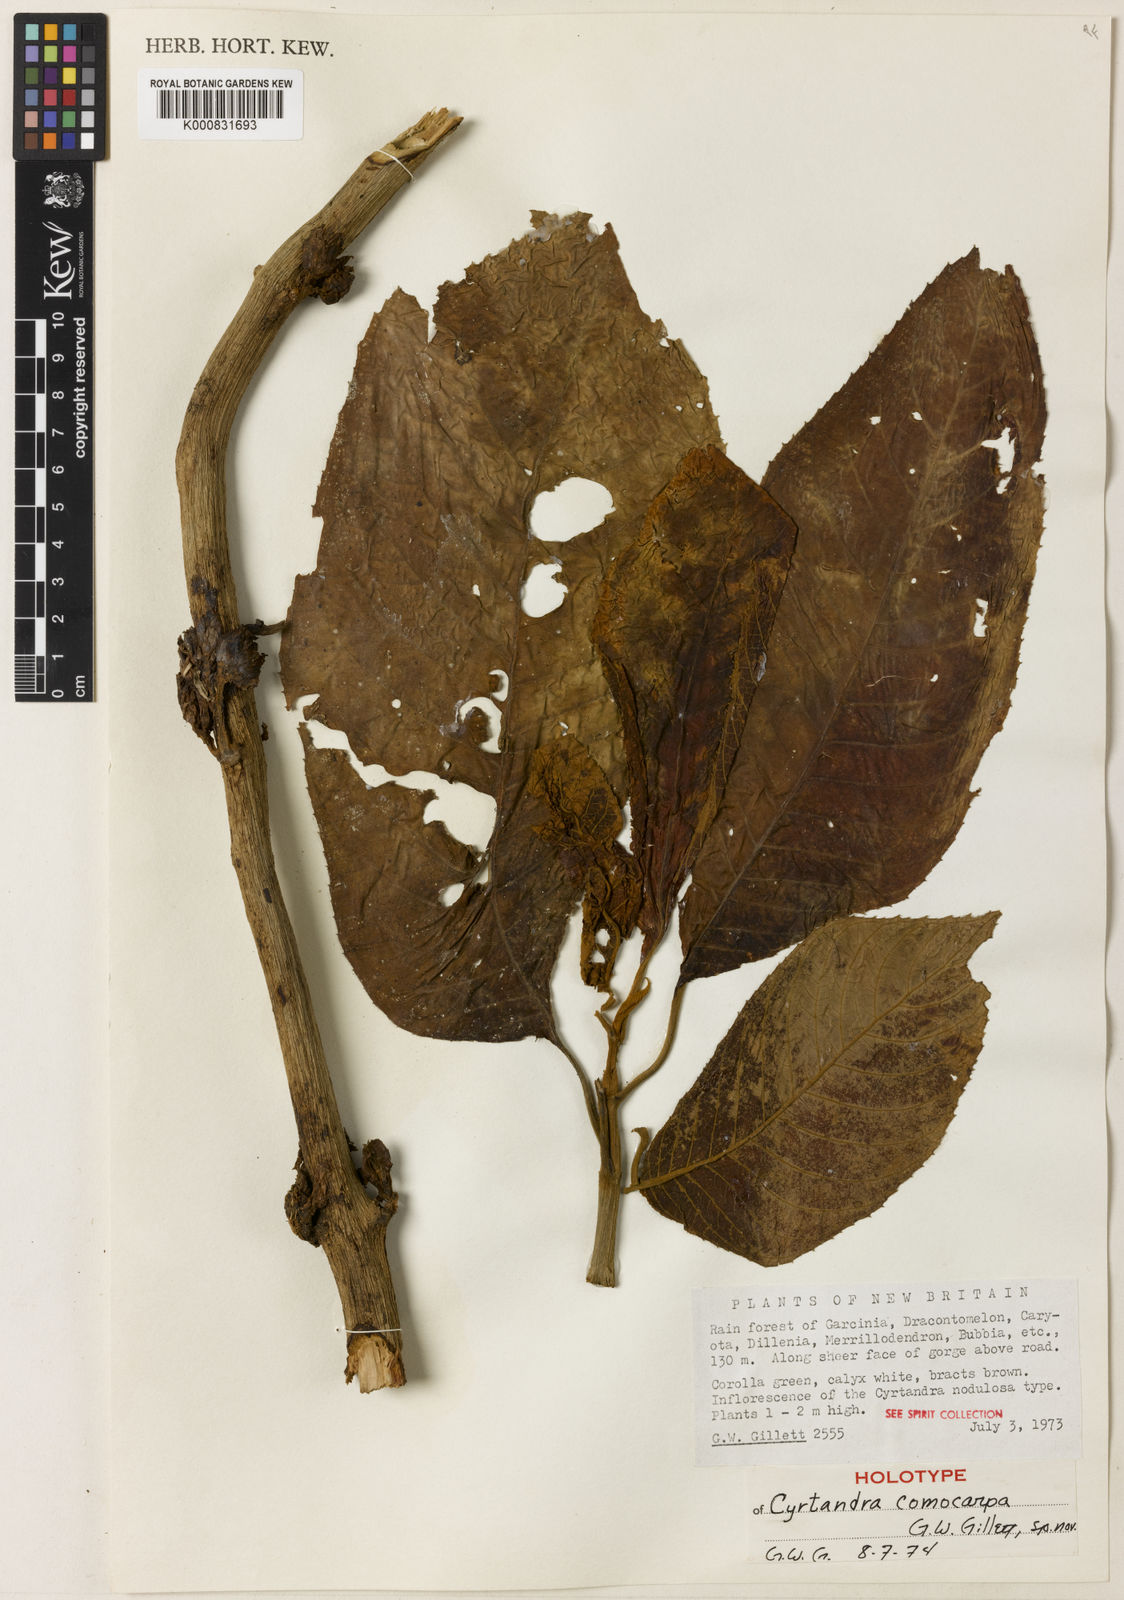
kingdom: Plantae
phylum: Tracheophyta
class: Magnoliopsida
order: Lamiales
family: Gesneriaceae
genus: Cyrtandra
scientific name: Cyrtandra comocarpa
